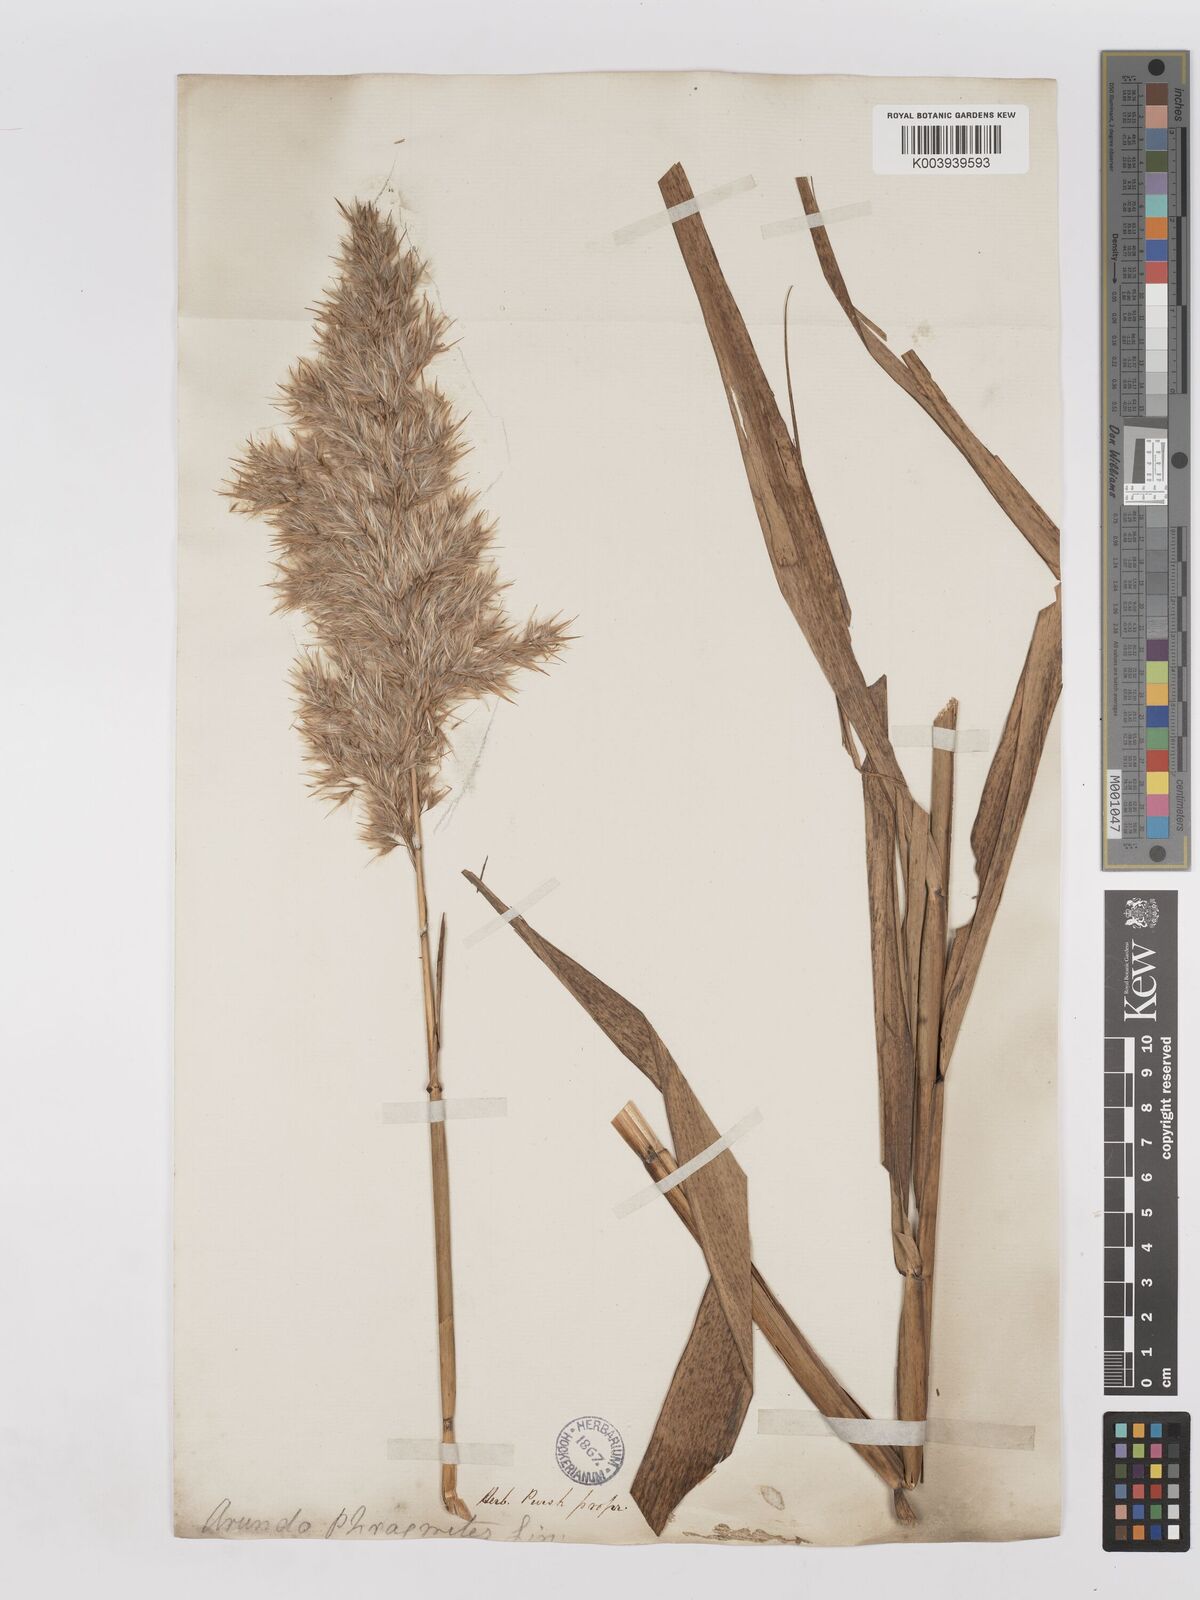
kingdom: Plantae
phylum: Tracheophyta
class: Liliopsida
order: Poales
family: Poaceae
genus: Phragmites
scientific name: Phragmites australis
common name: Common reed
